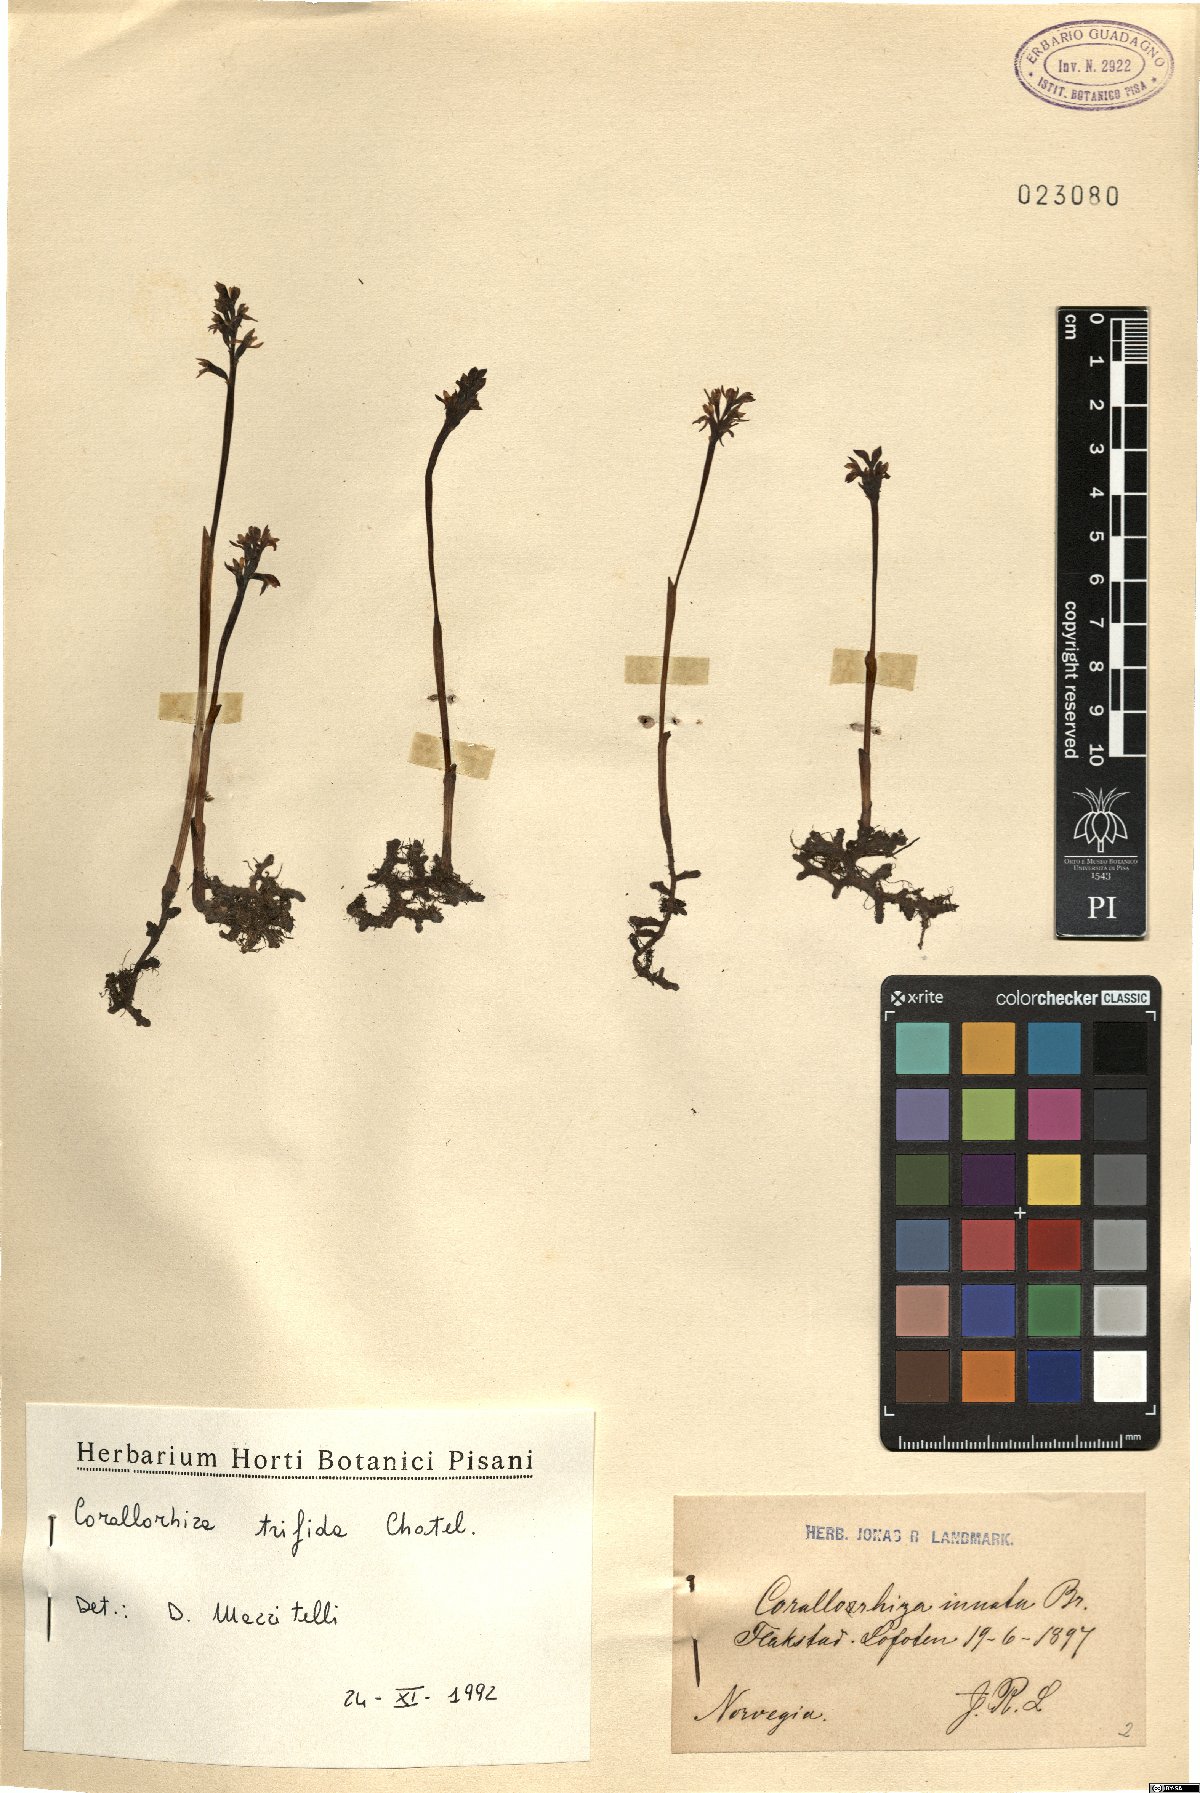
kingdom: Plantae
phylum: Tracheophyta
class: Liliopsida
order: Asparagales
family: Orchidaceae
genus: Corallorhiza
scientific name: Corallorhiza trifida
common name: Yellow coralroot
